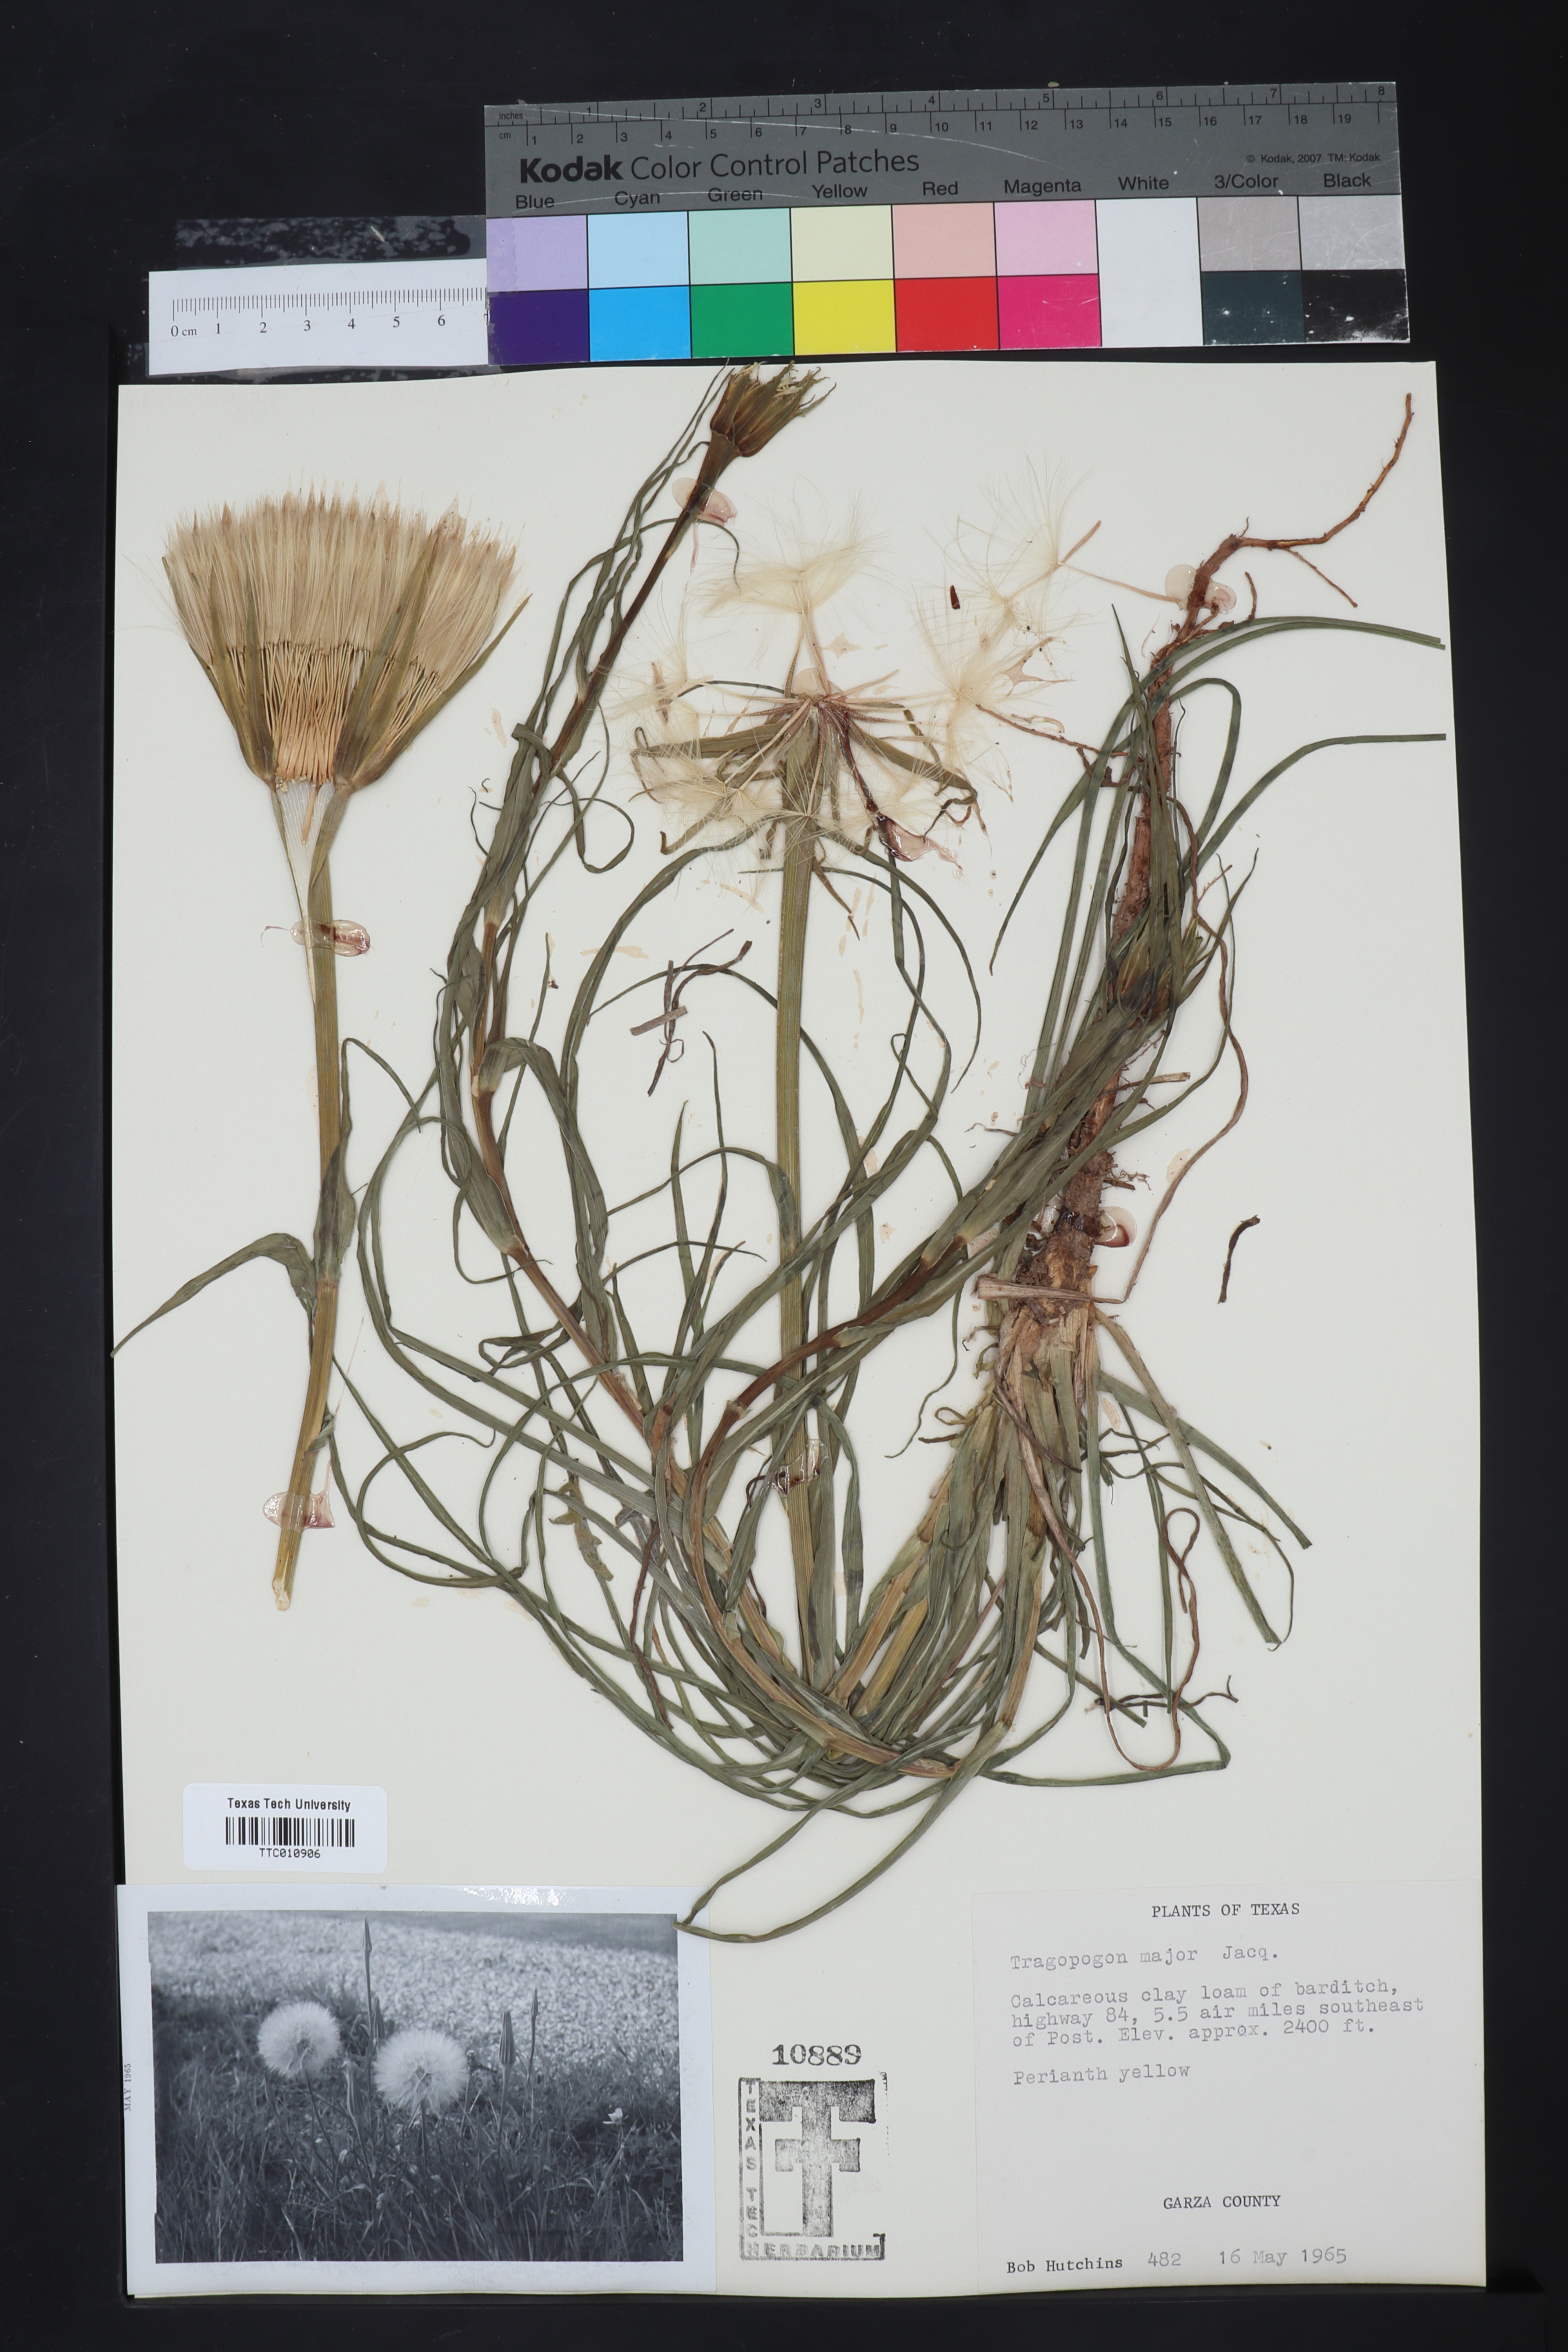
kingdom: Plantae
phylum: Tracheophyta
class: Magnoliopsida
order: Asterales
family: Asteraceae
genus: Tragopogon
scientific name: Tragopogon dubius
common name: Yellow salsify
